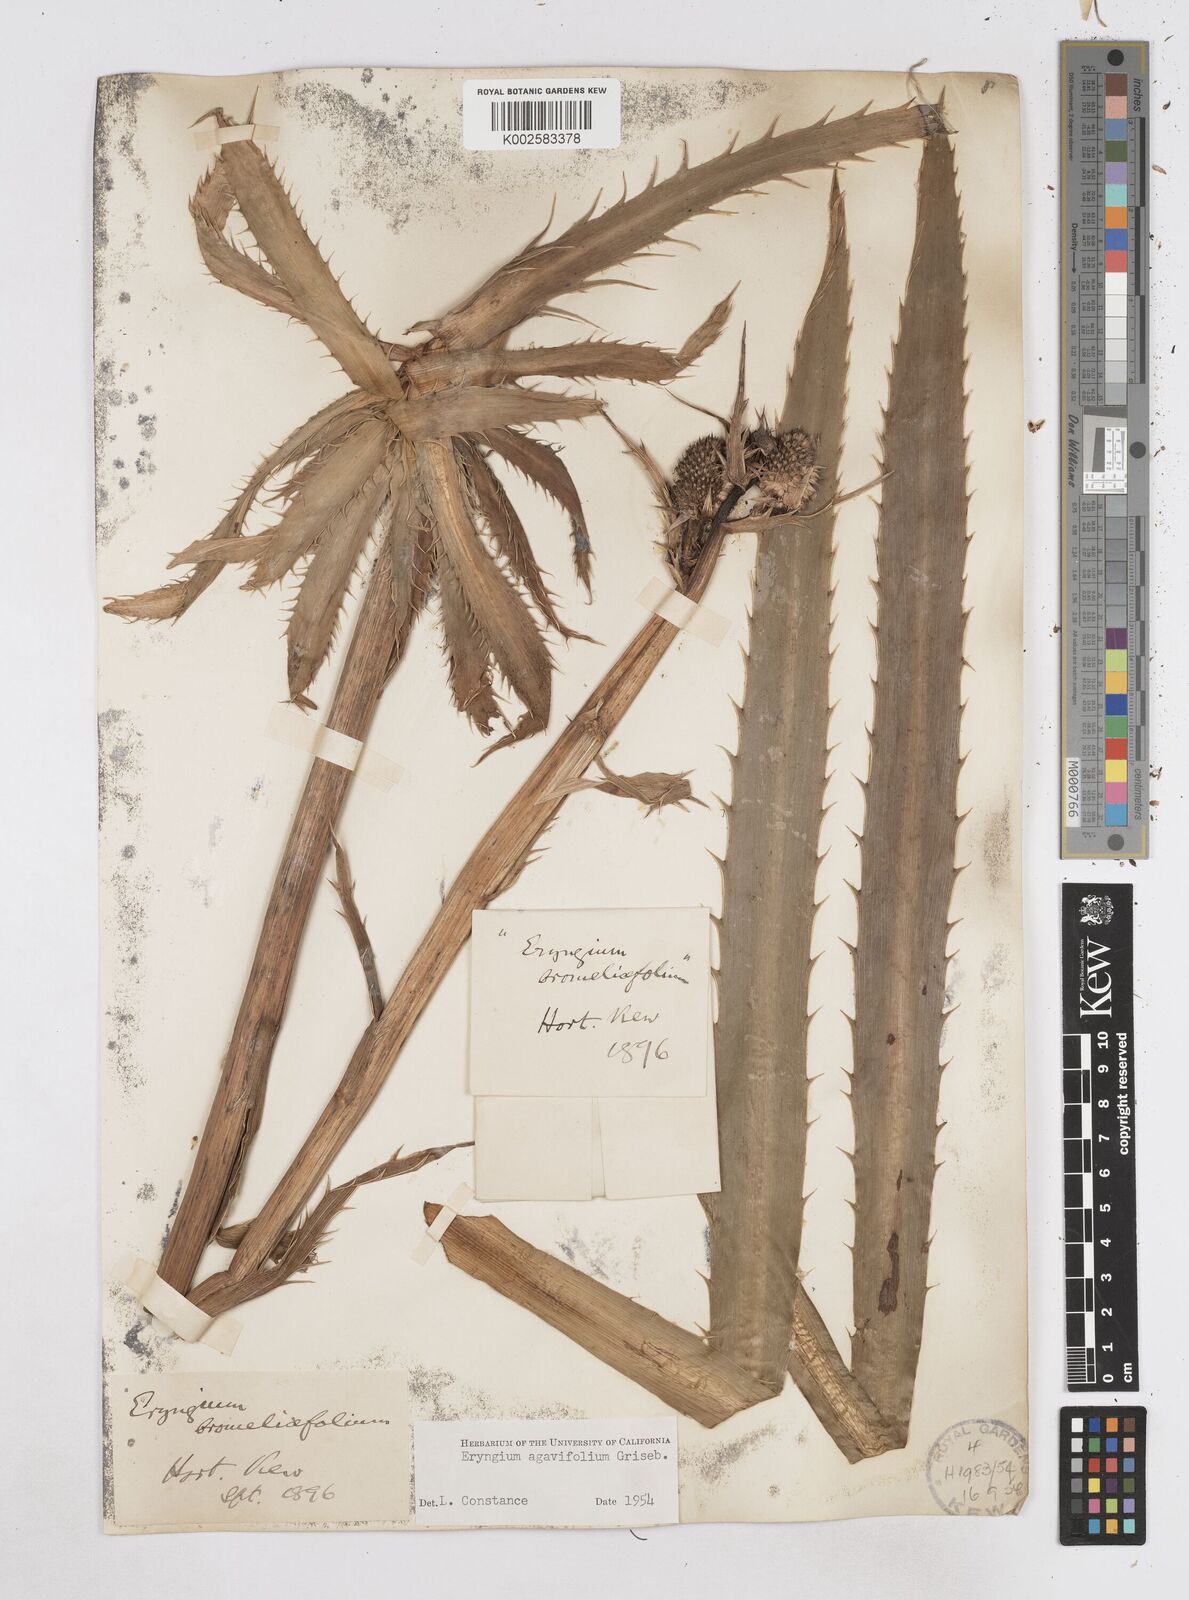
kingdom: Plantae
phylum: Tracheophyta
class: Magnoliopsida
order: Apiales
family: Apiaceae
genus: Eryngium
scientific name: Eryngium agavifolium
